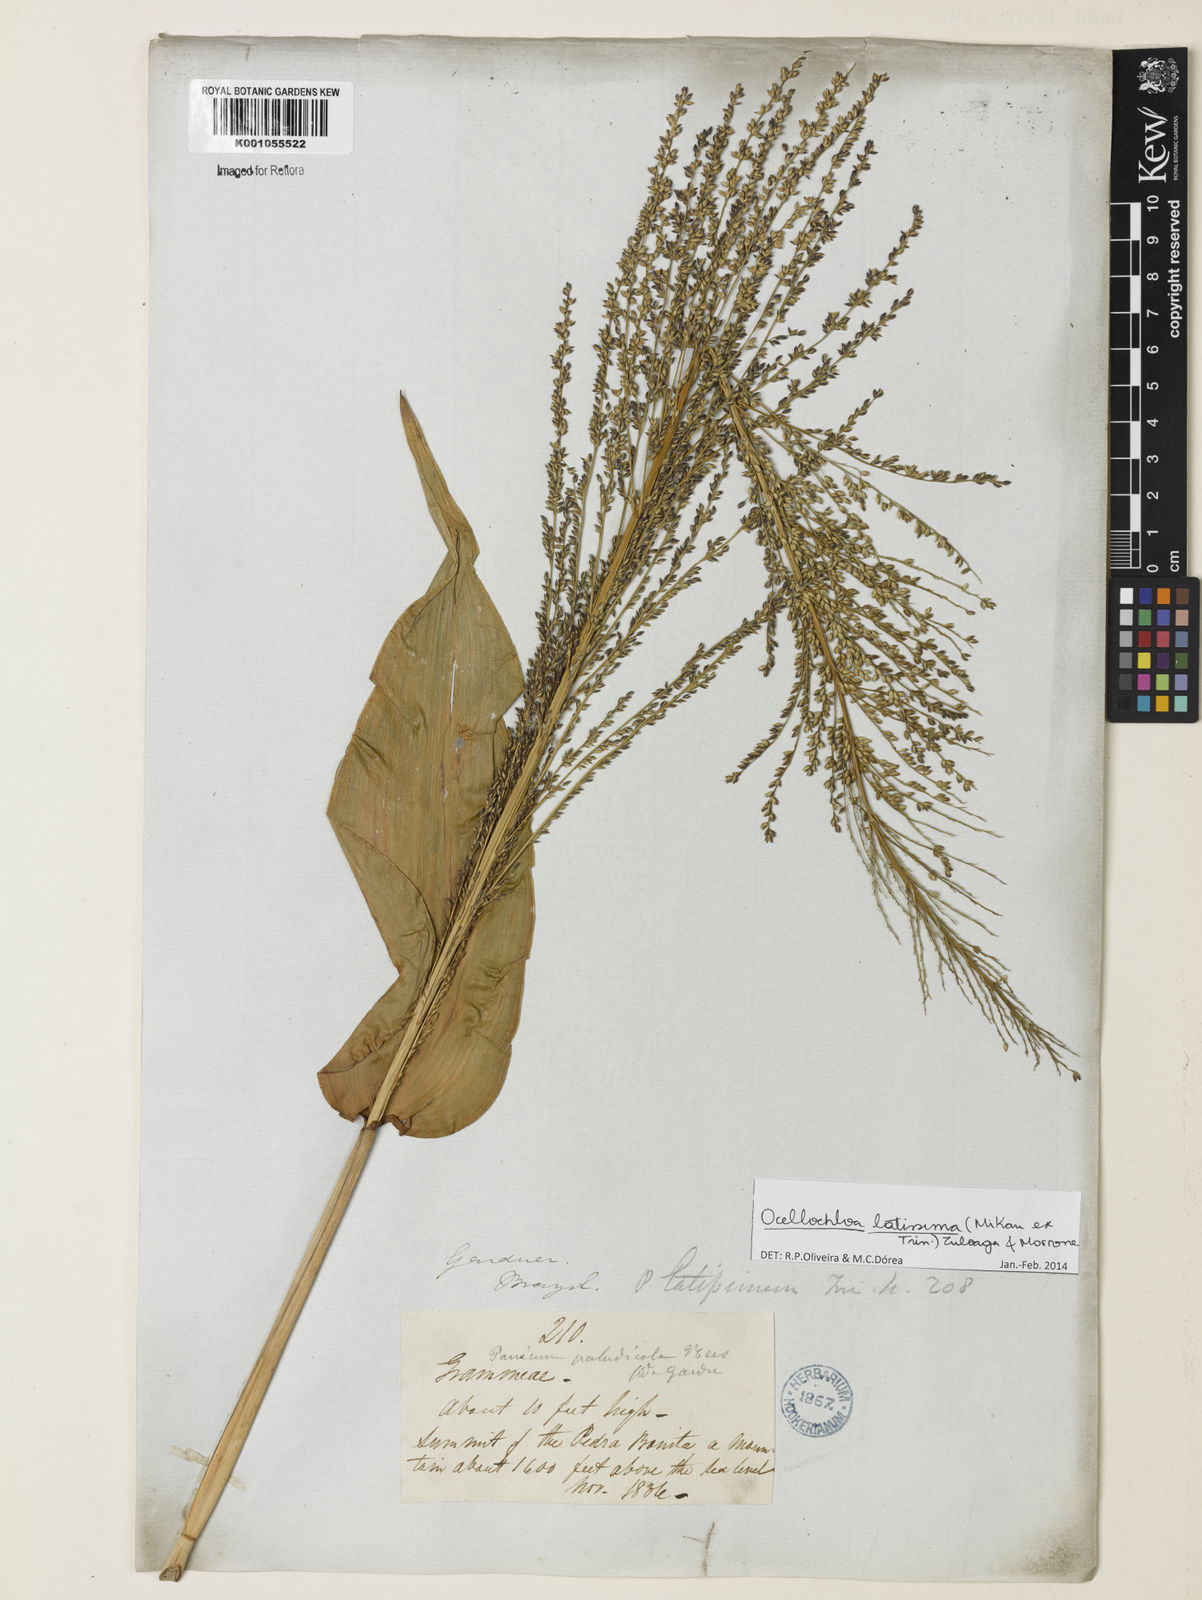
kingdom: Plantae
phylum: Tracheophyta
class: Liliopsida
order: Poales
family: Poaceae
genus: Ocellochloa
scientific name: Ocellochloa latissima
